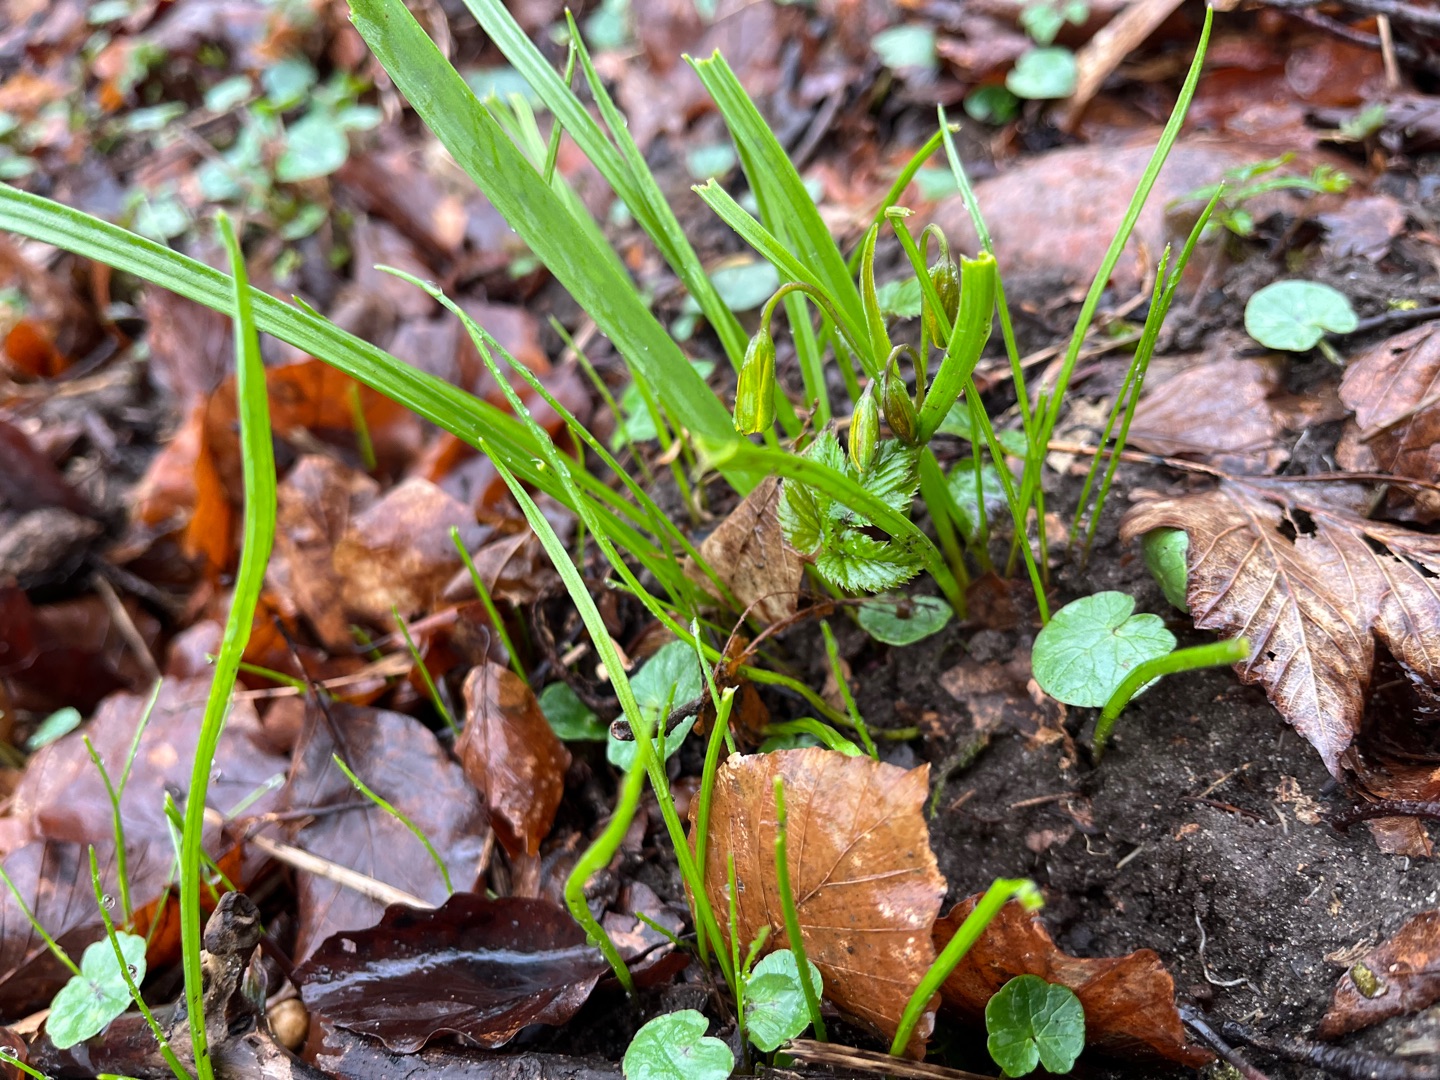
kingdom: Plantae
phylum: Tracheophyta
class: Liliopsida
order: Liliales
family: Liliaceae
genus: Gagea
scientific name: Gagea lutea
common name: Almindelig guldstjerne
